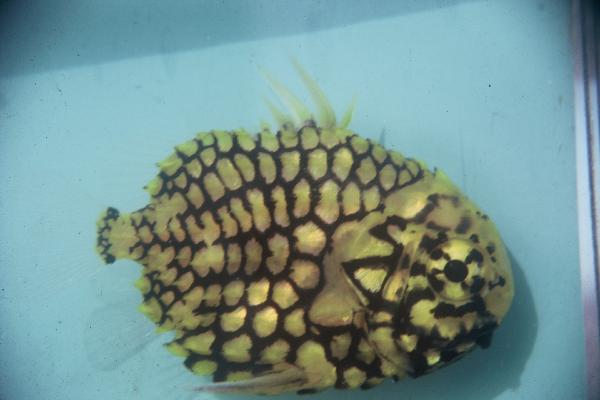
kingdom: Animalia
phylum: Chordata
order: Beryciformes
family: Monocentridae
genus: Monocentris
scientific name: Monocentris japonica
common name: Pineconefish
